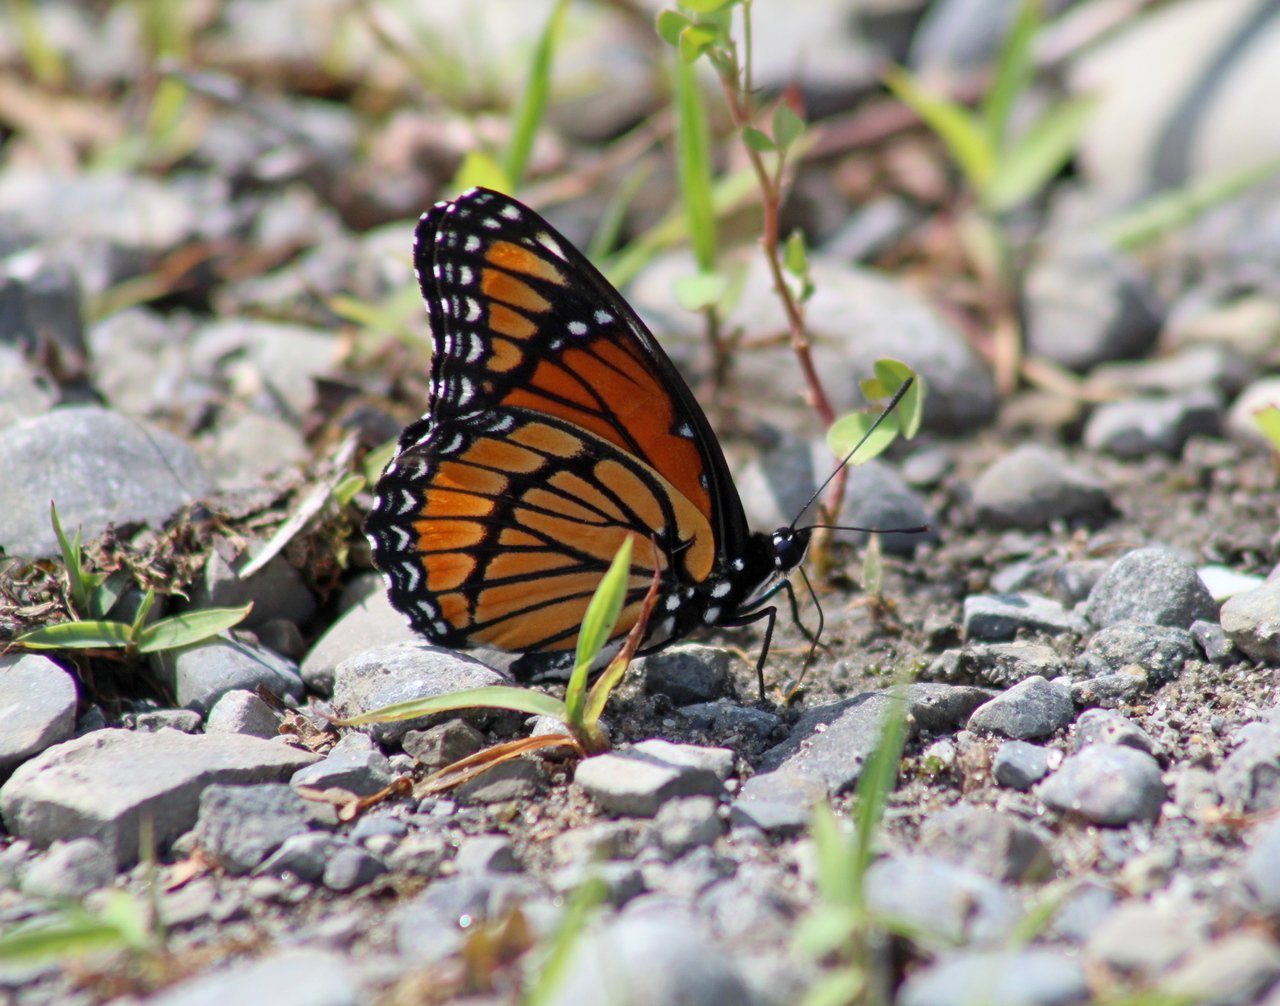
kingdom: Animalia
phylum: Arthropoda
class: Insecta
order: Lepidoptera
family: Nymphalidae
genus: Limenitis
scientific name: Limenitis archippus
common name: Viceroy
